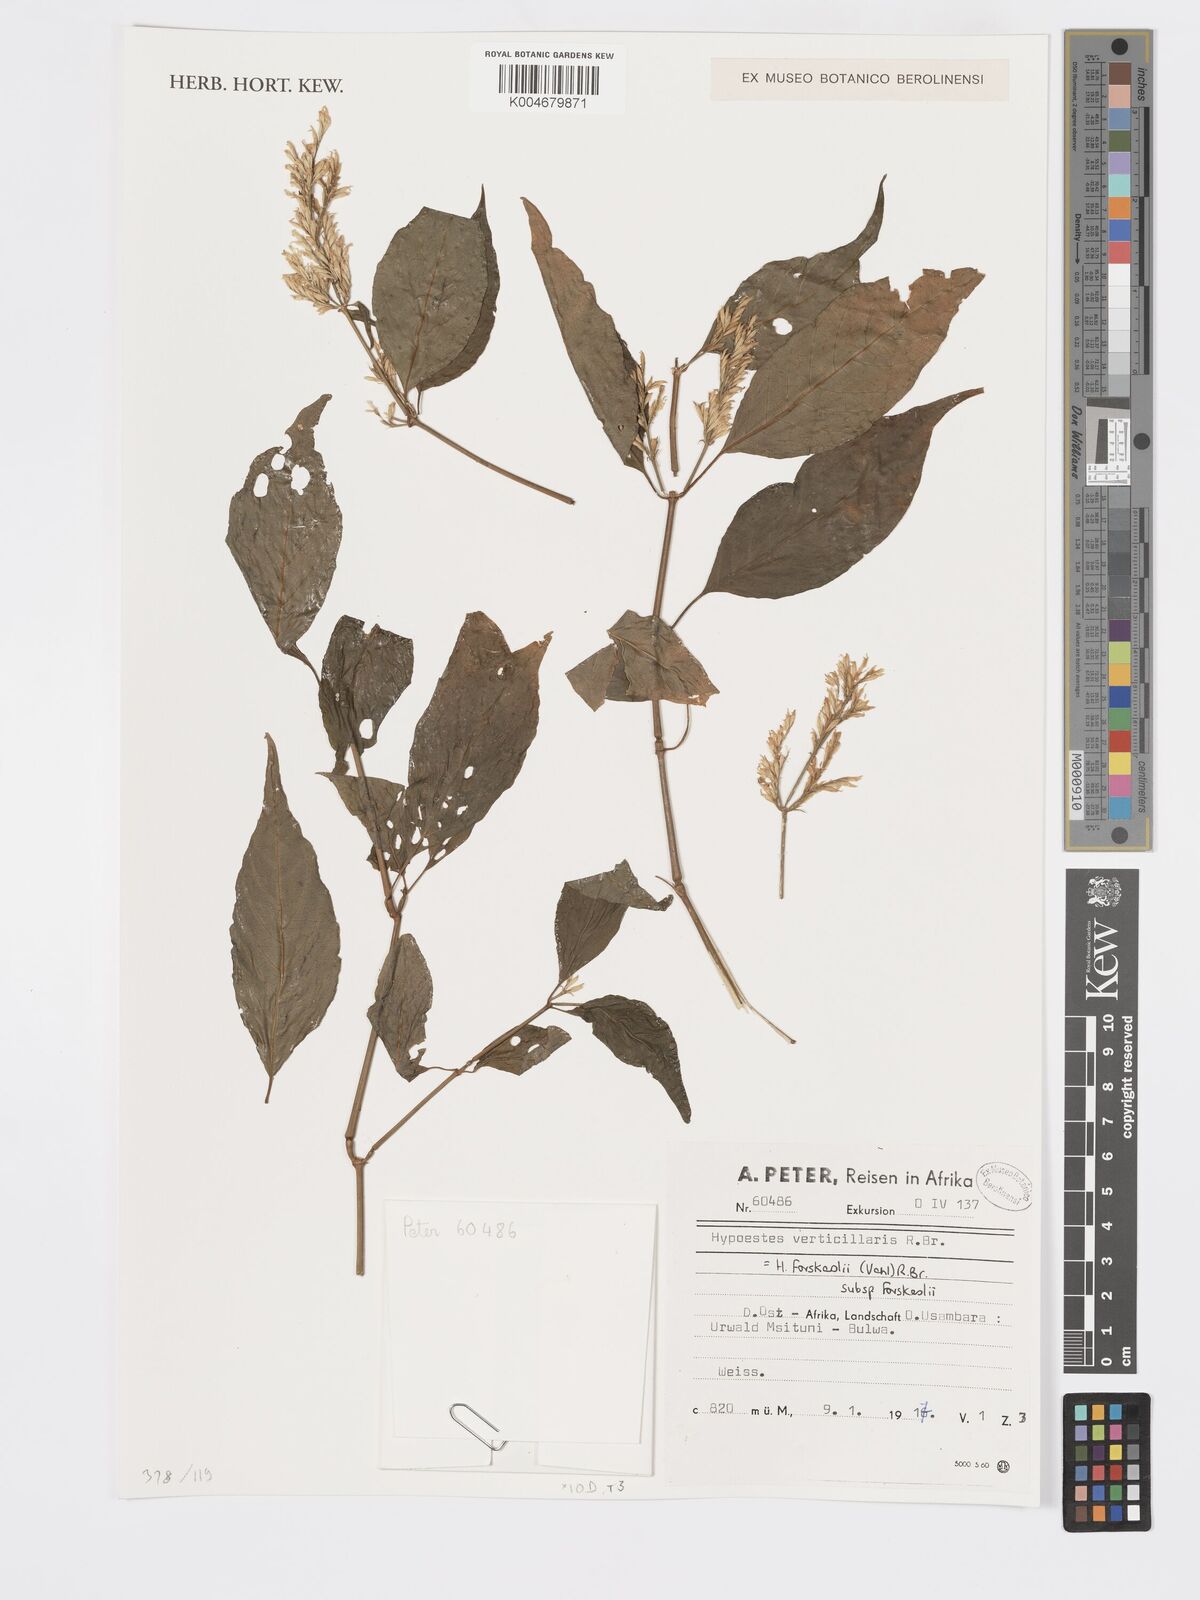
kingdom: Plantae
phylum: Tracheophyta
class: Magnoliopsida
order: Lamiales
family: Acanthaceae
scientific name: Acanthaceae
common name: Acanthaceae
